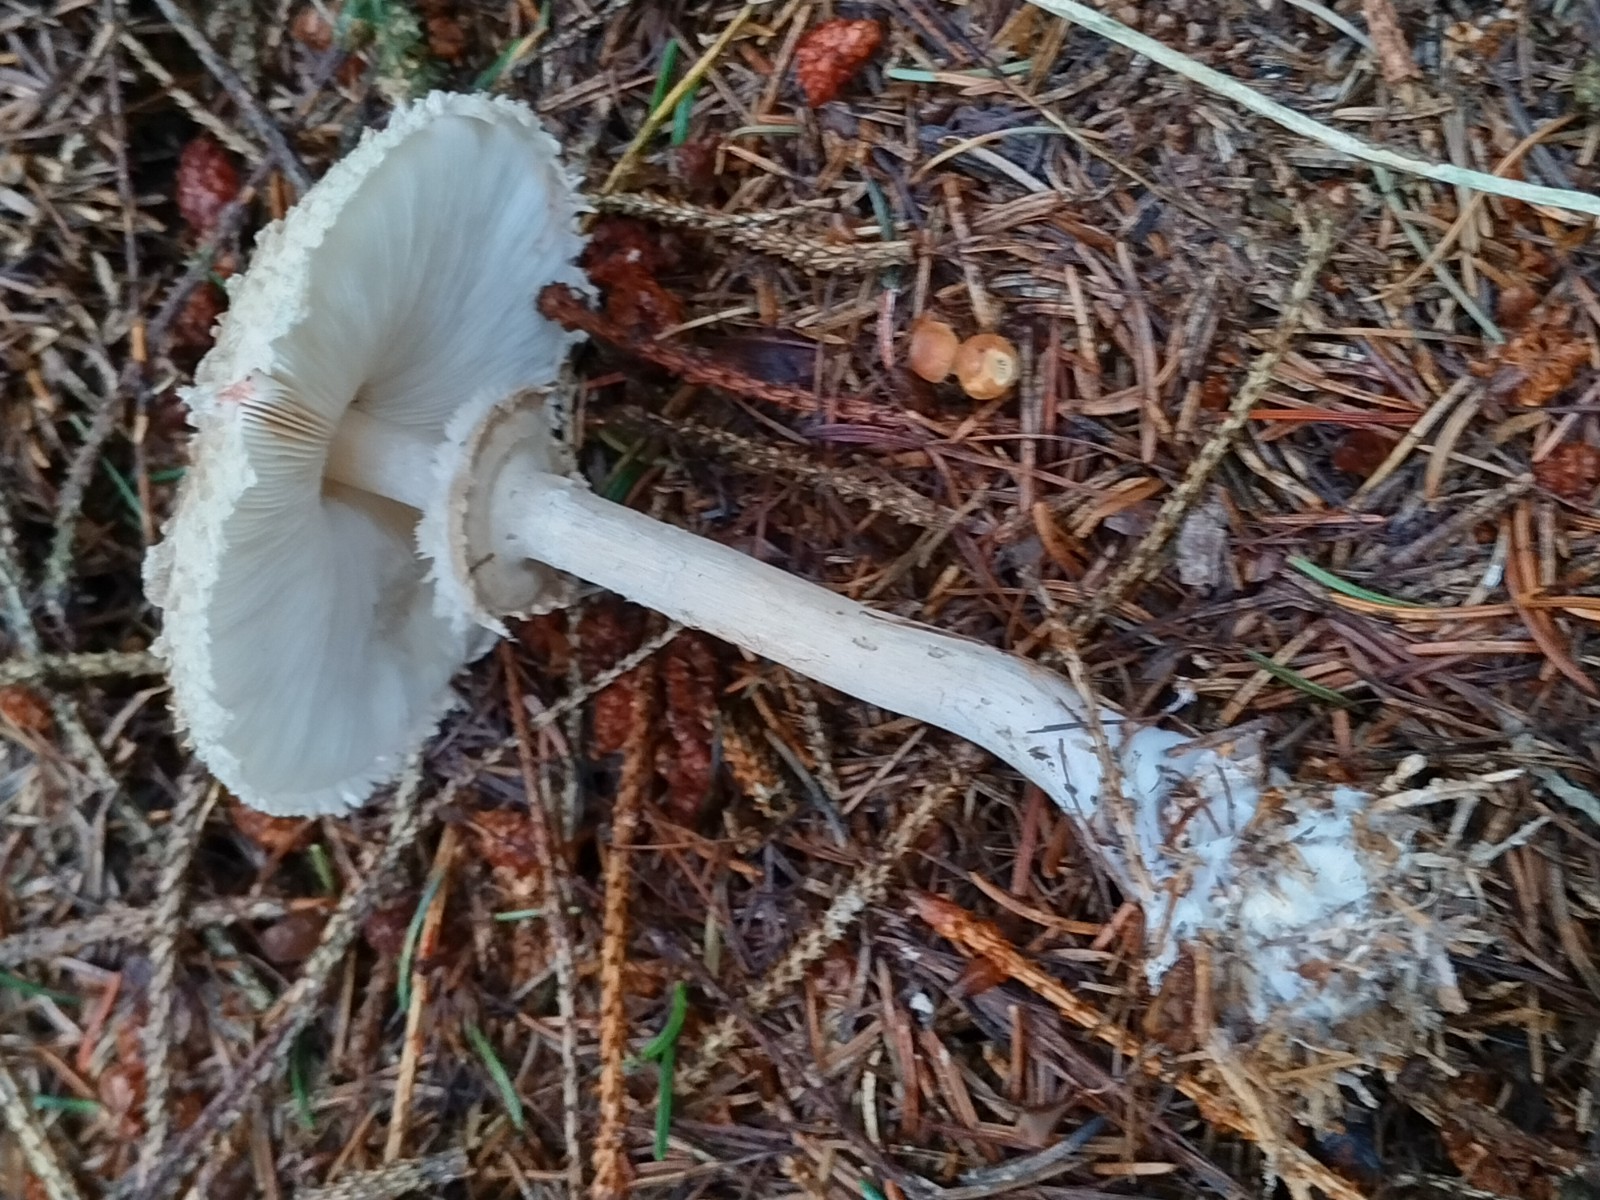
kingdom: Fungi
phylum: Basidiomycota
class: Agaricomycetes
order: Agaricales
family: Agaricaceae
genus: Chlorophyllum
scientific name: Chlorophyllum olivieri
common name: almindelig rabarberhat
